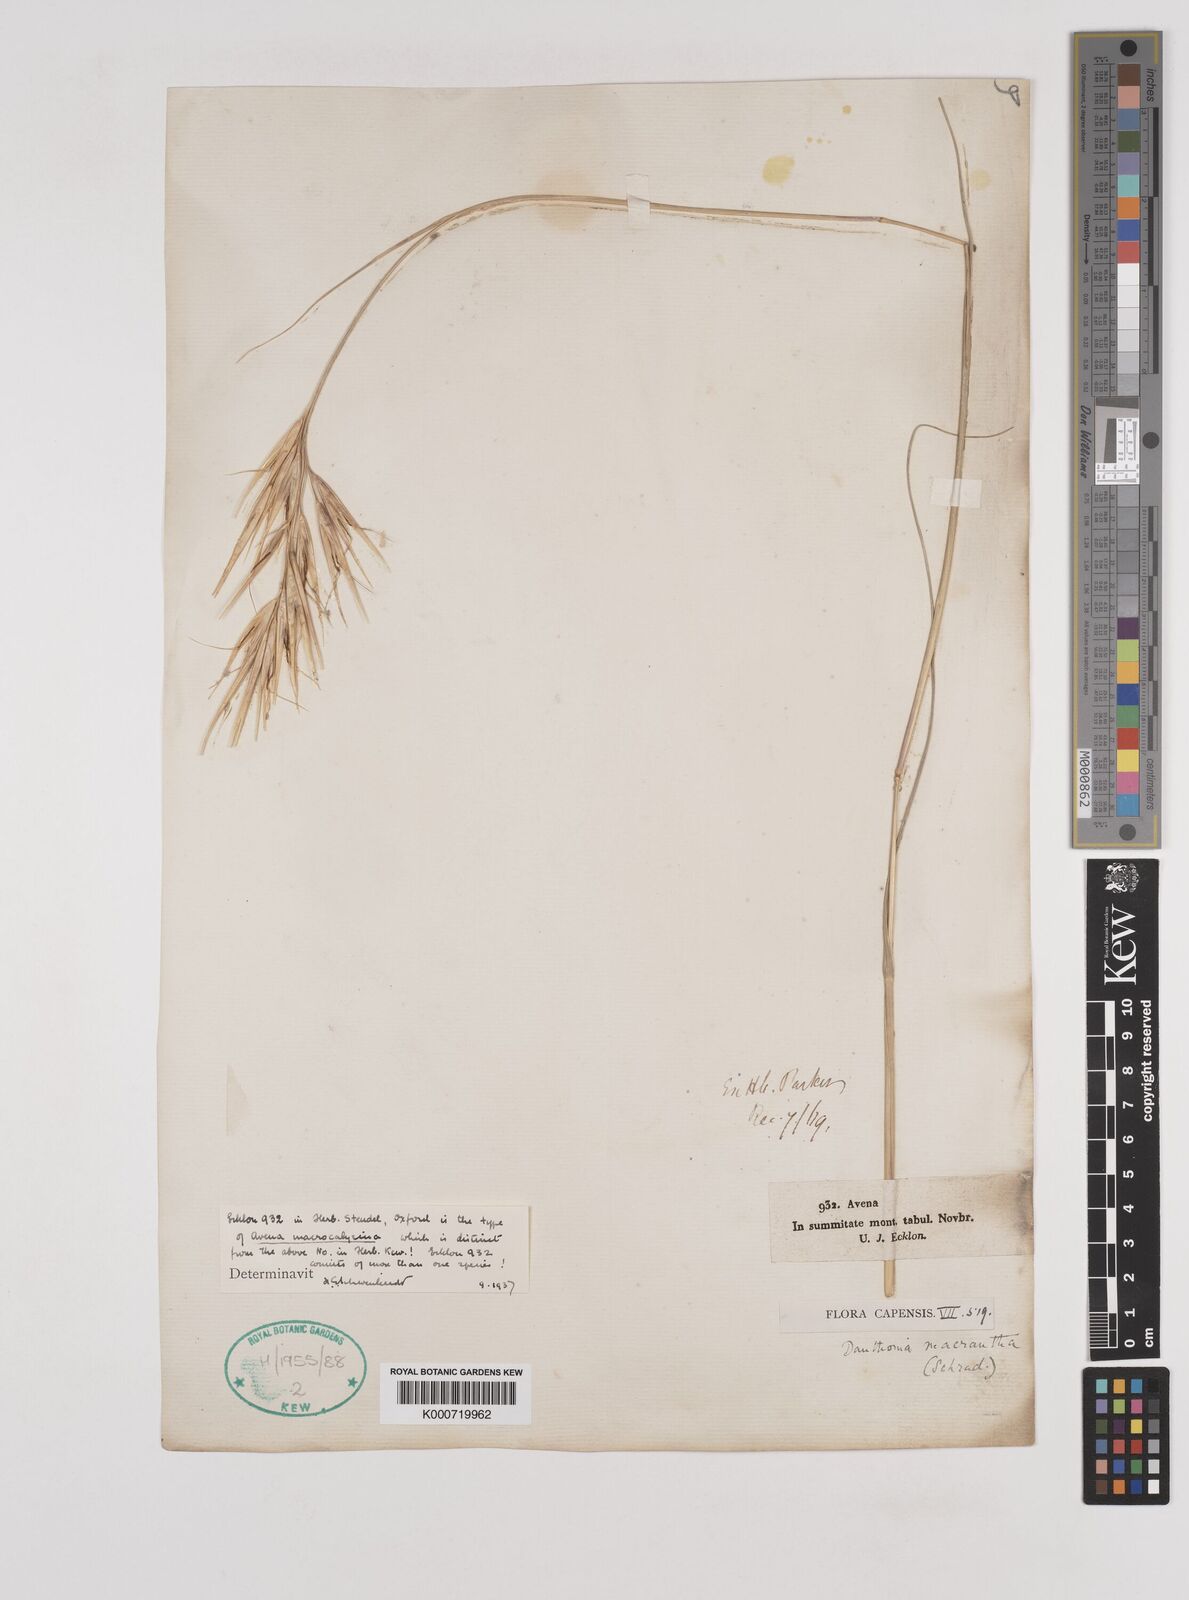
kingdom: Plantae
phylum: Tracheophyta
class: Liliopsida
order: Poales
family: Poaceae
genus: Pseudopentameris
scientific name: Pseudopentameris macrantha
